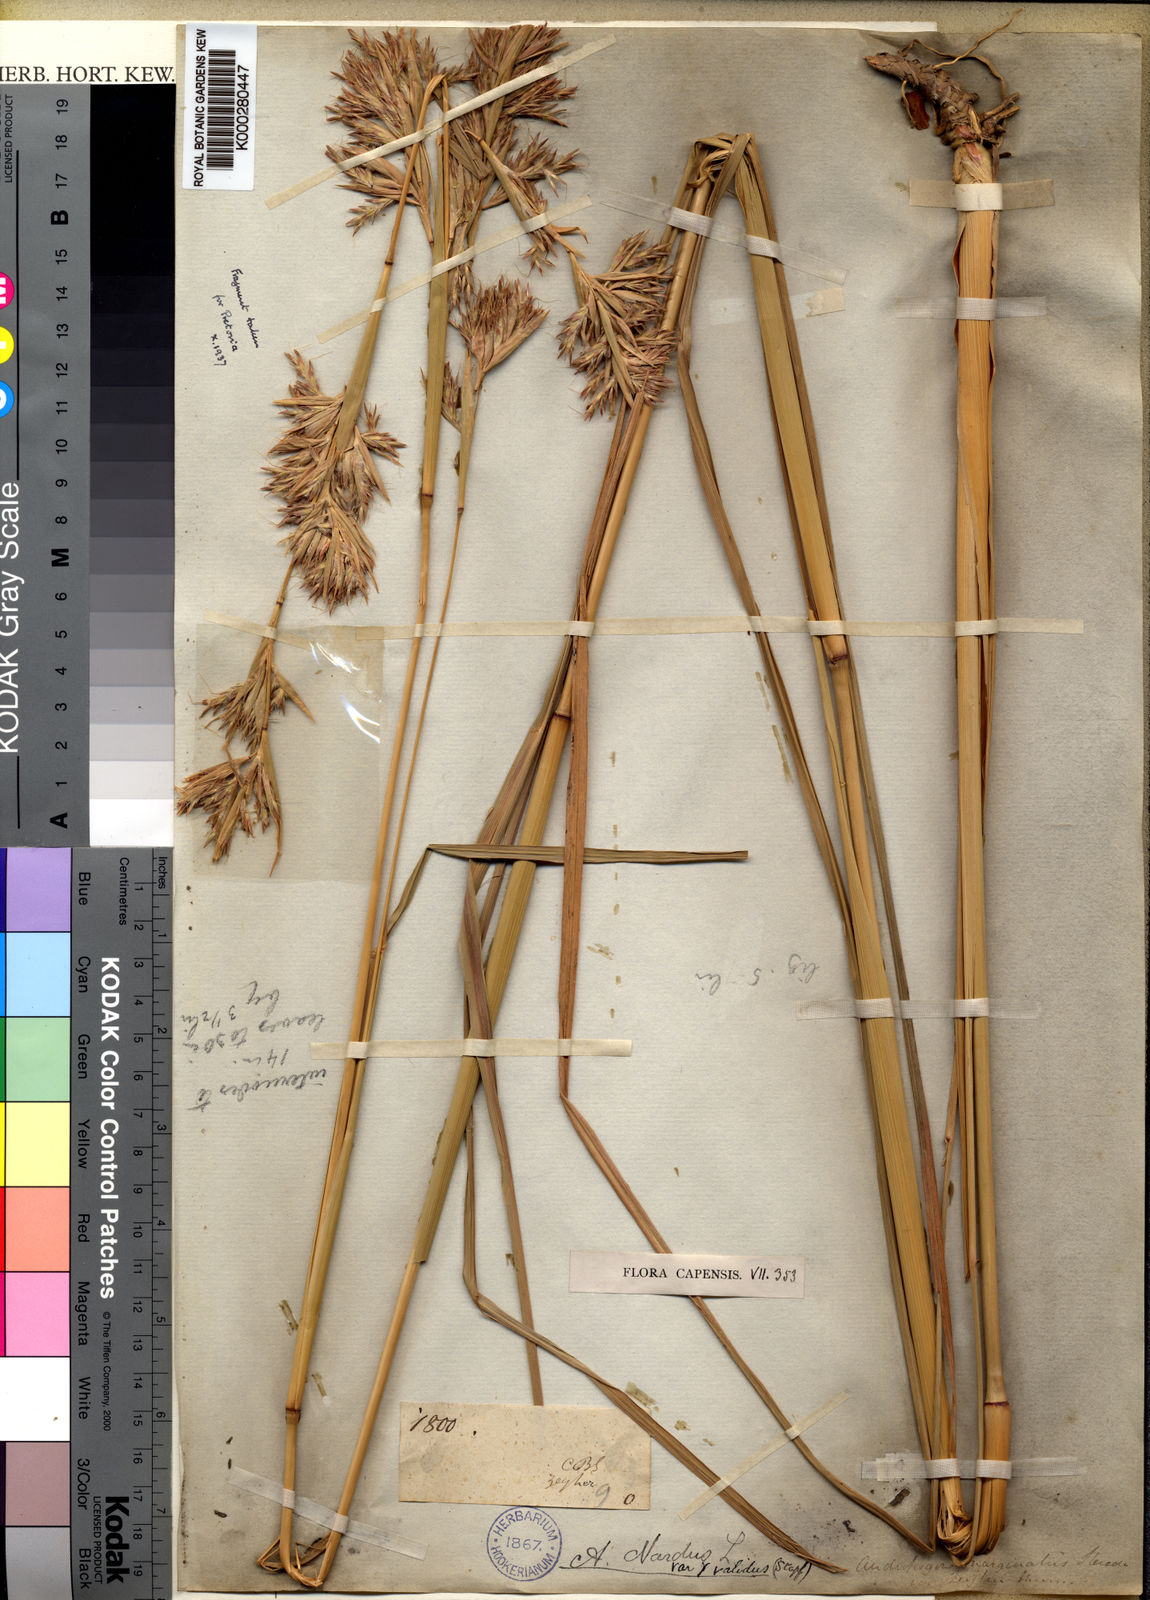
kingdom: Plantae
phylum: Tracheophyta
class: Liliopsida
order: Poales
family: Poaceae
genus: Cymbopogon
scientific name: Cymbopogon nardus
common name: Giant turpentine grass
